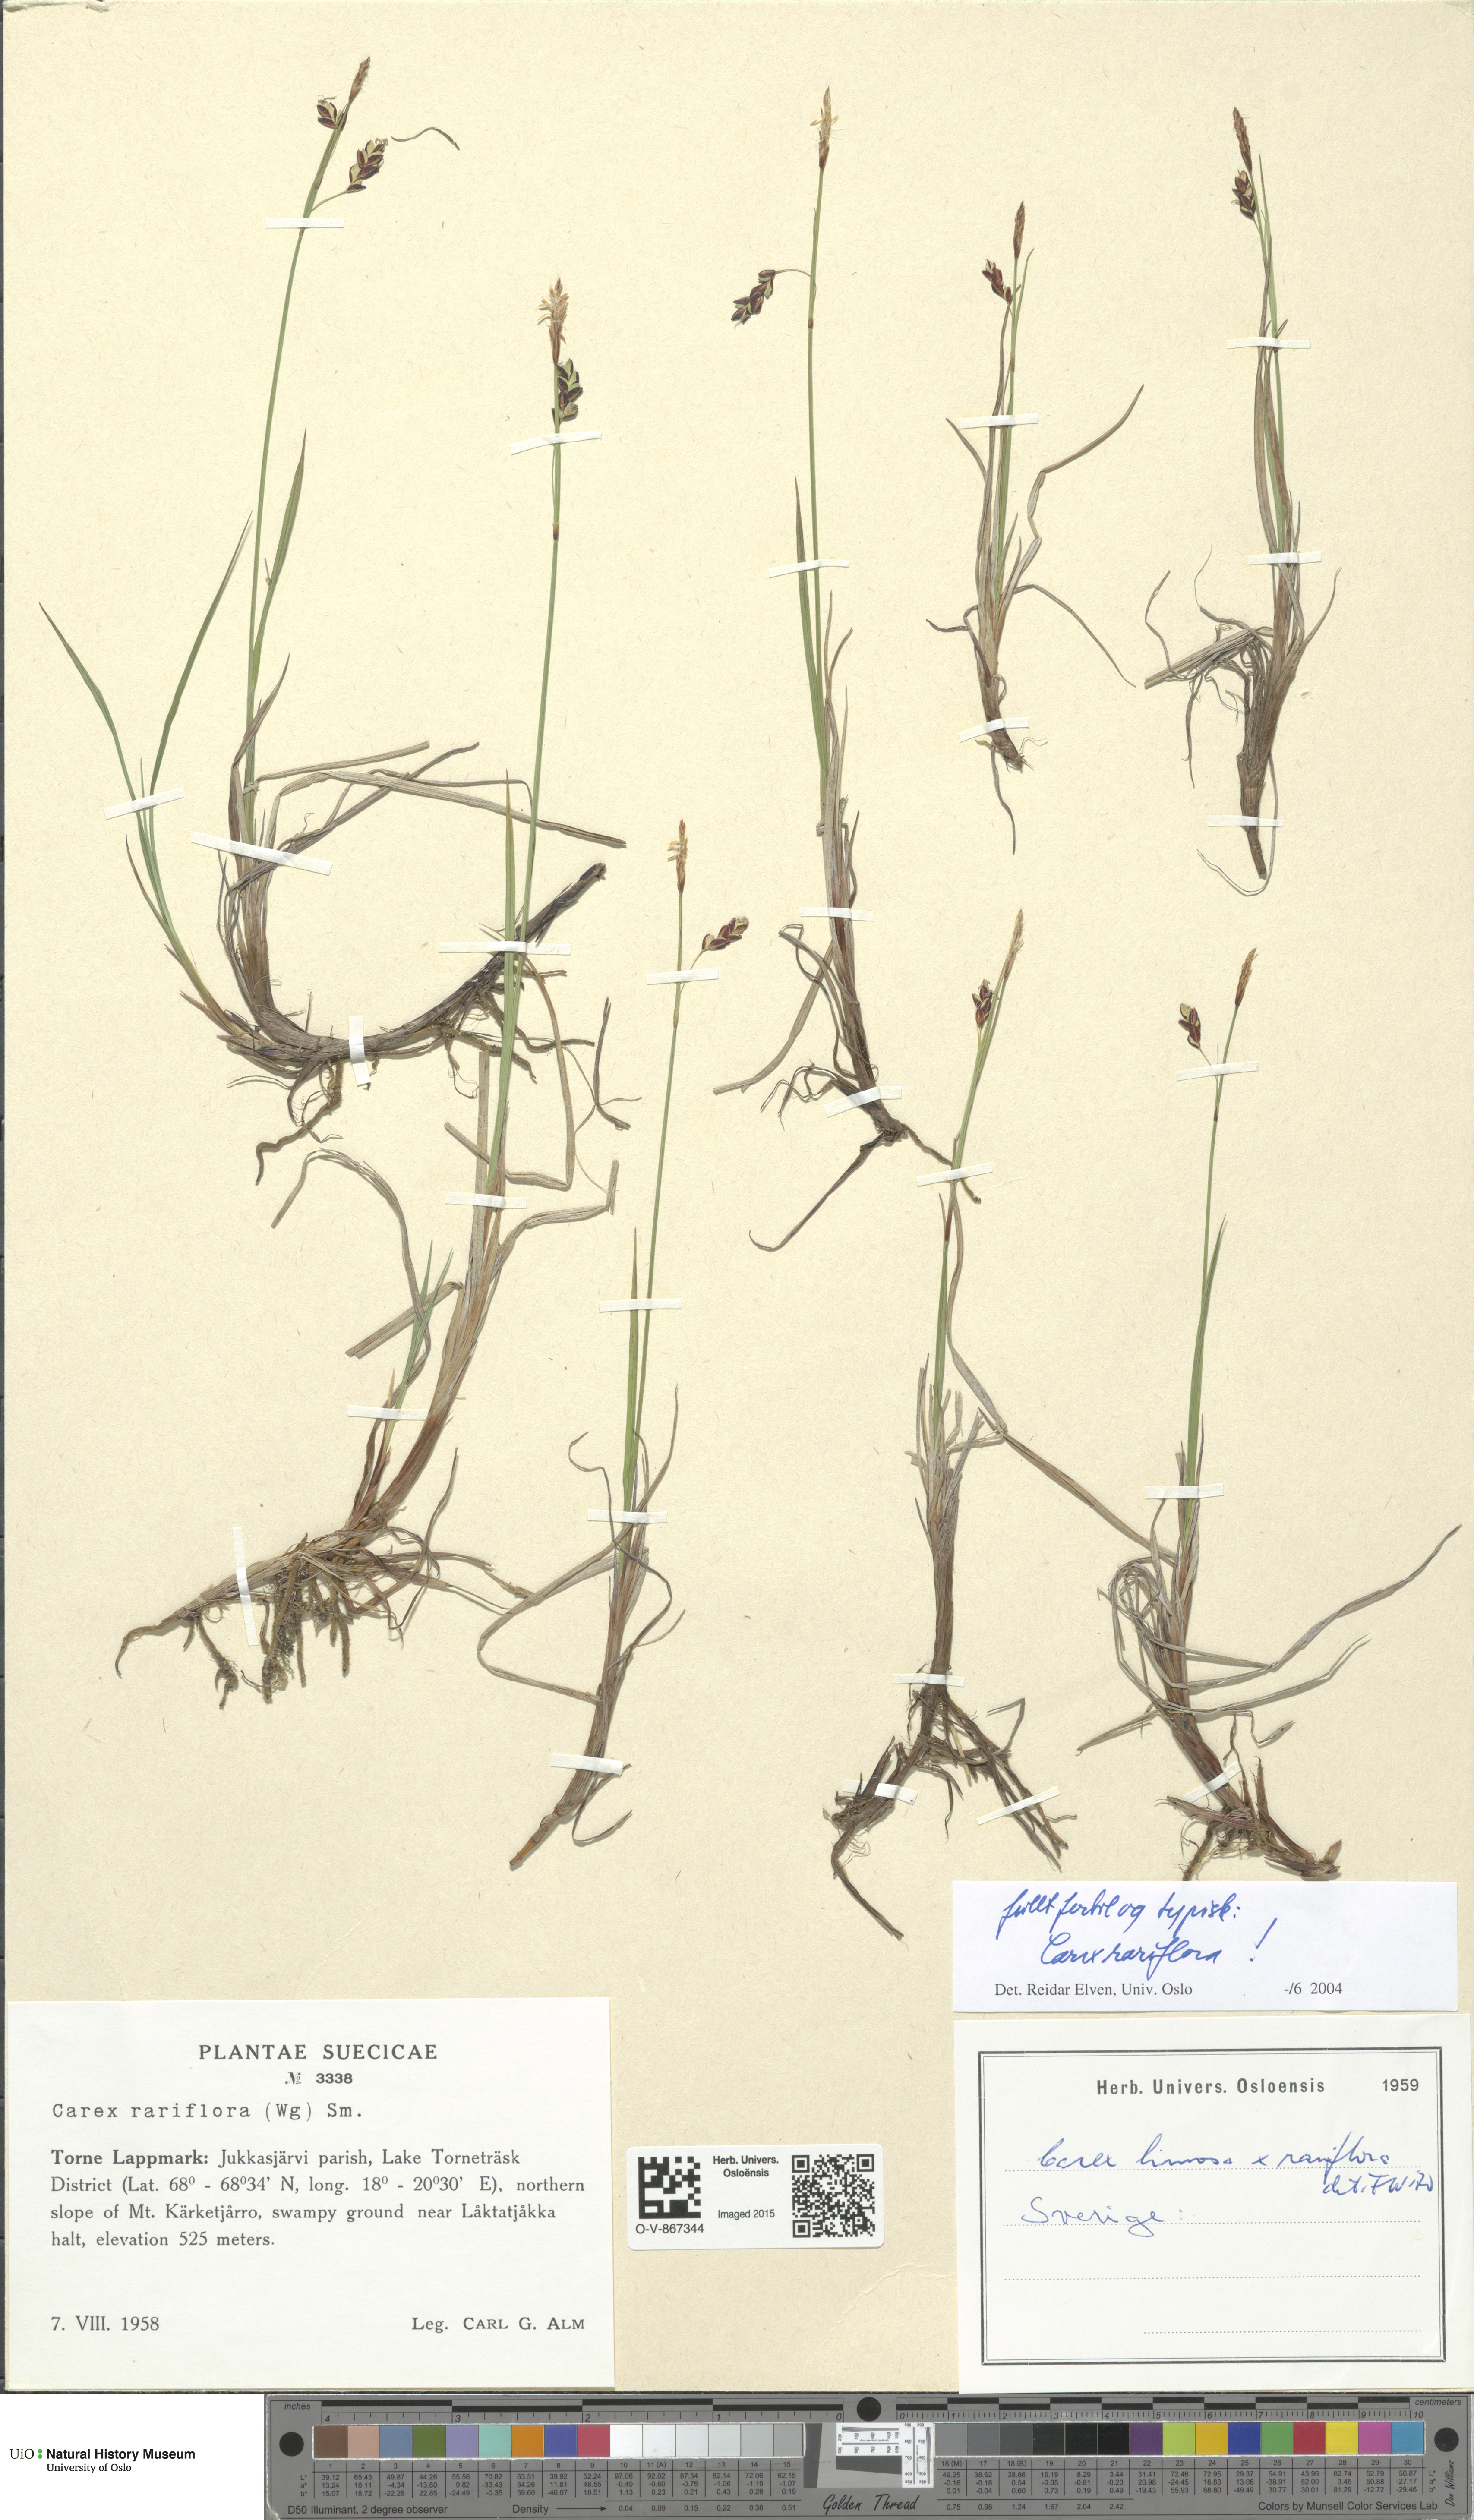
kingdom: Plantae
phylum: Tracheophyta
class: Liliopsida
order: Poales
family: Cyperaceae
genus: Carex
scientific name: Carex rariflora
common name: Loose-flowered alpine sedge
